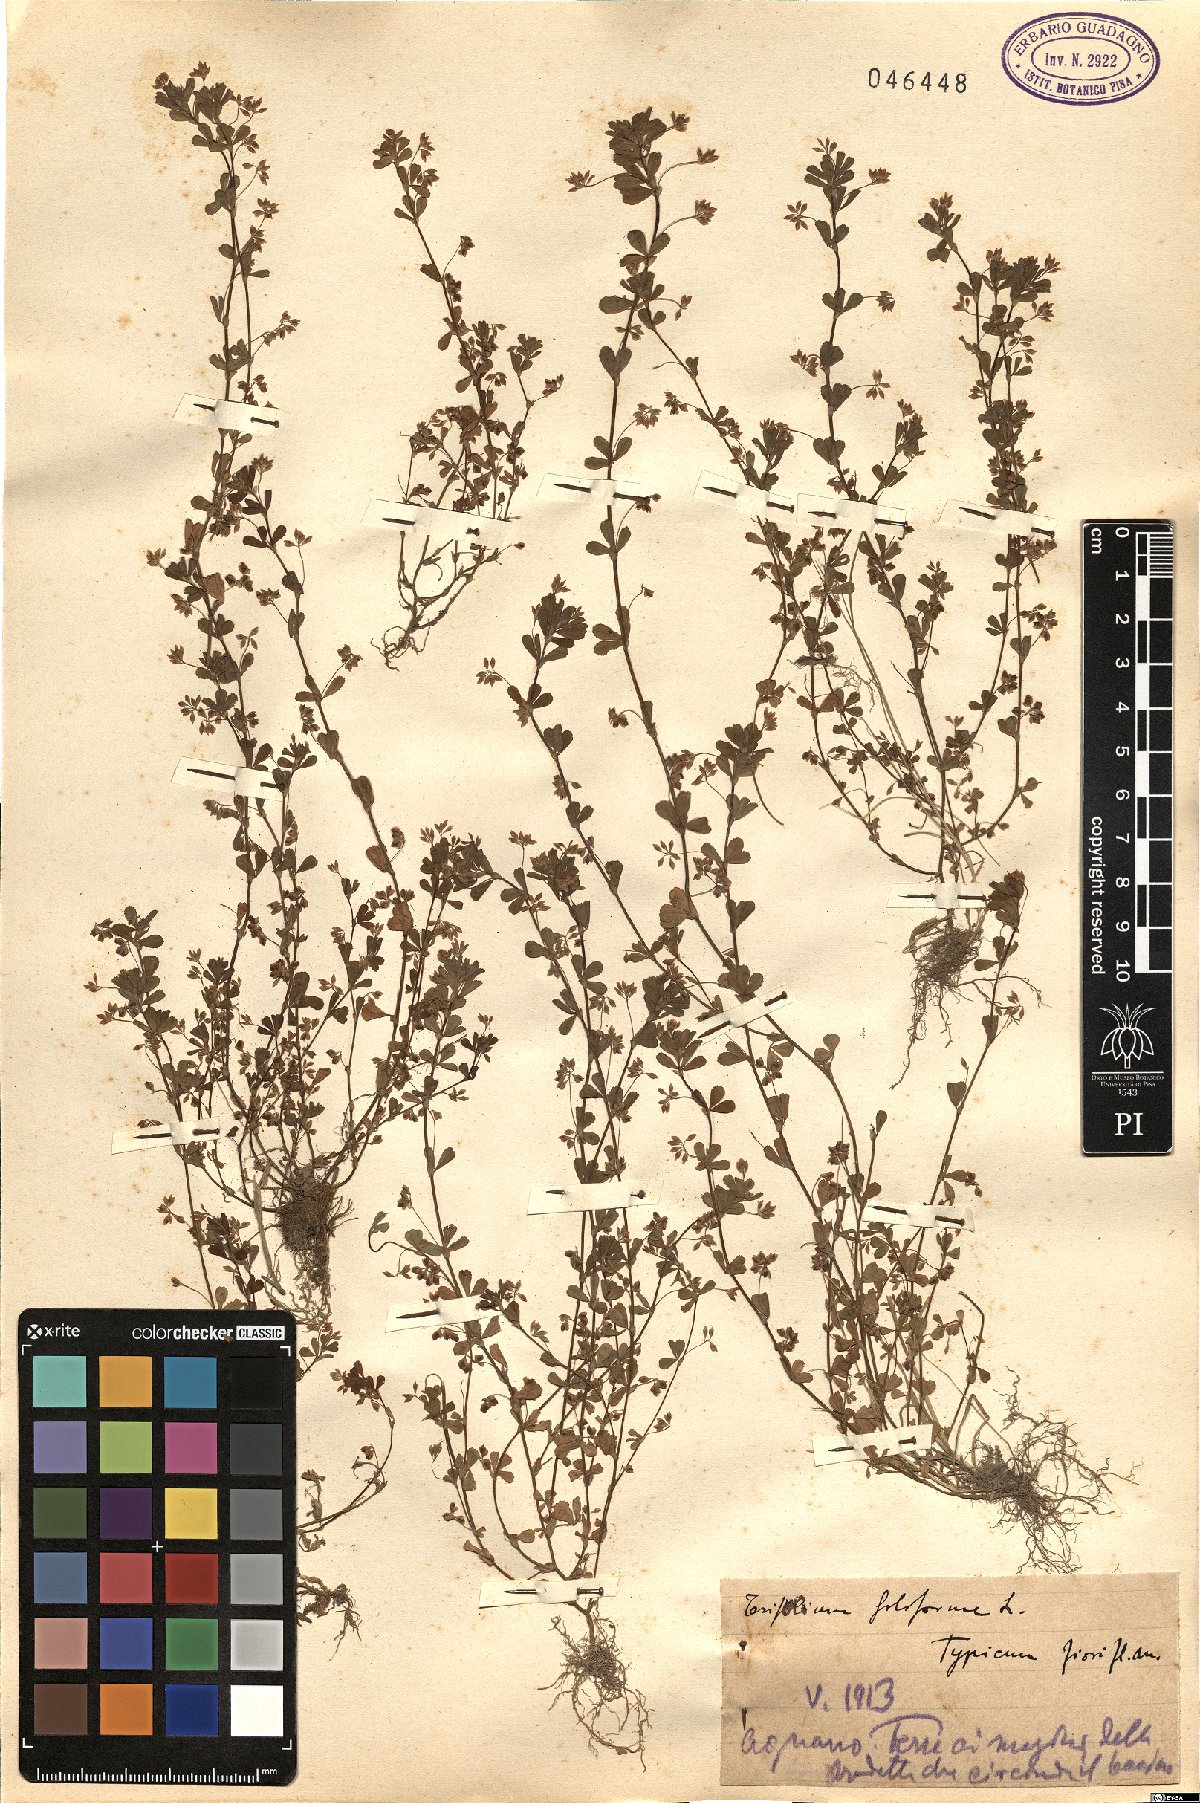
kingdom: Plantae
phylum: Tracheophyta
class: Magnoliopsida
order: Fabales
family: Fabaceae
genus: Trifolium
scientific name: Trifolium micranthum
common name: Slender trefoil
